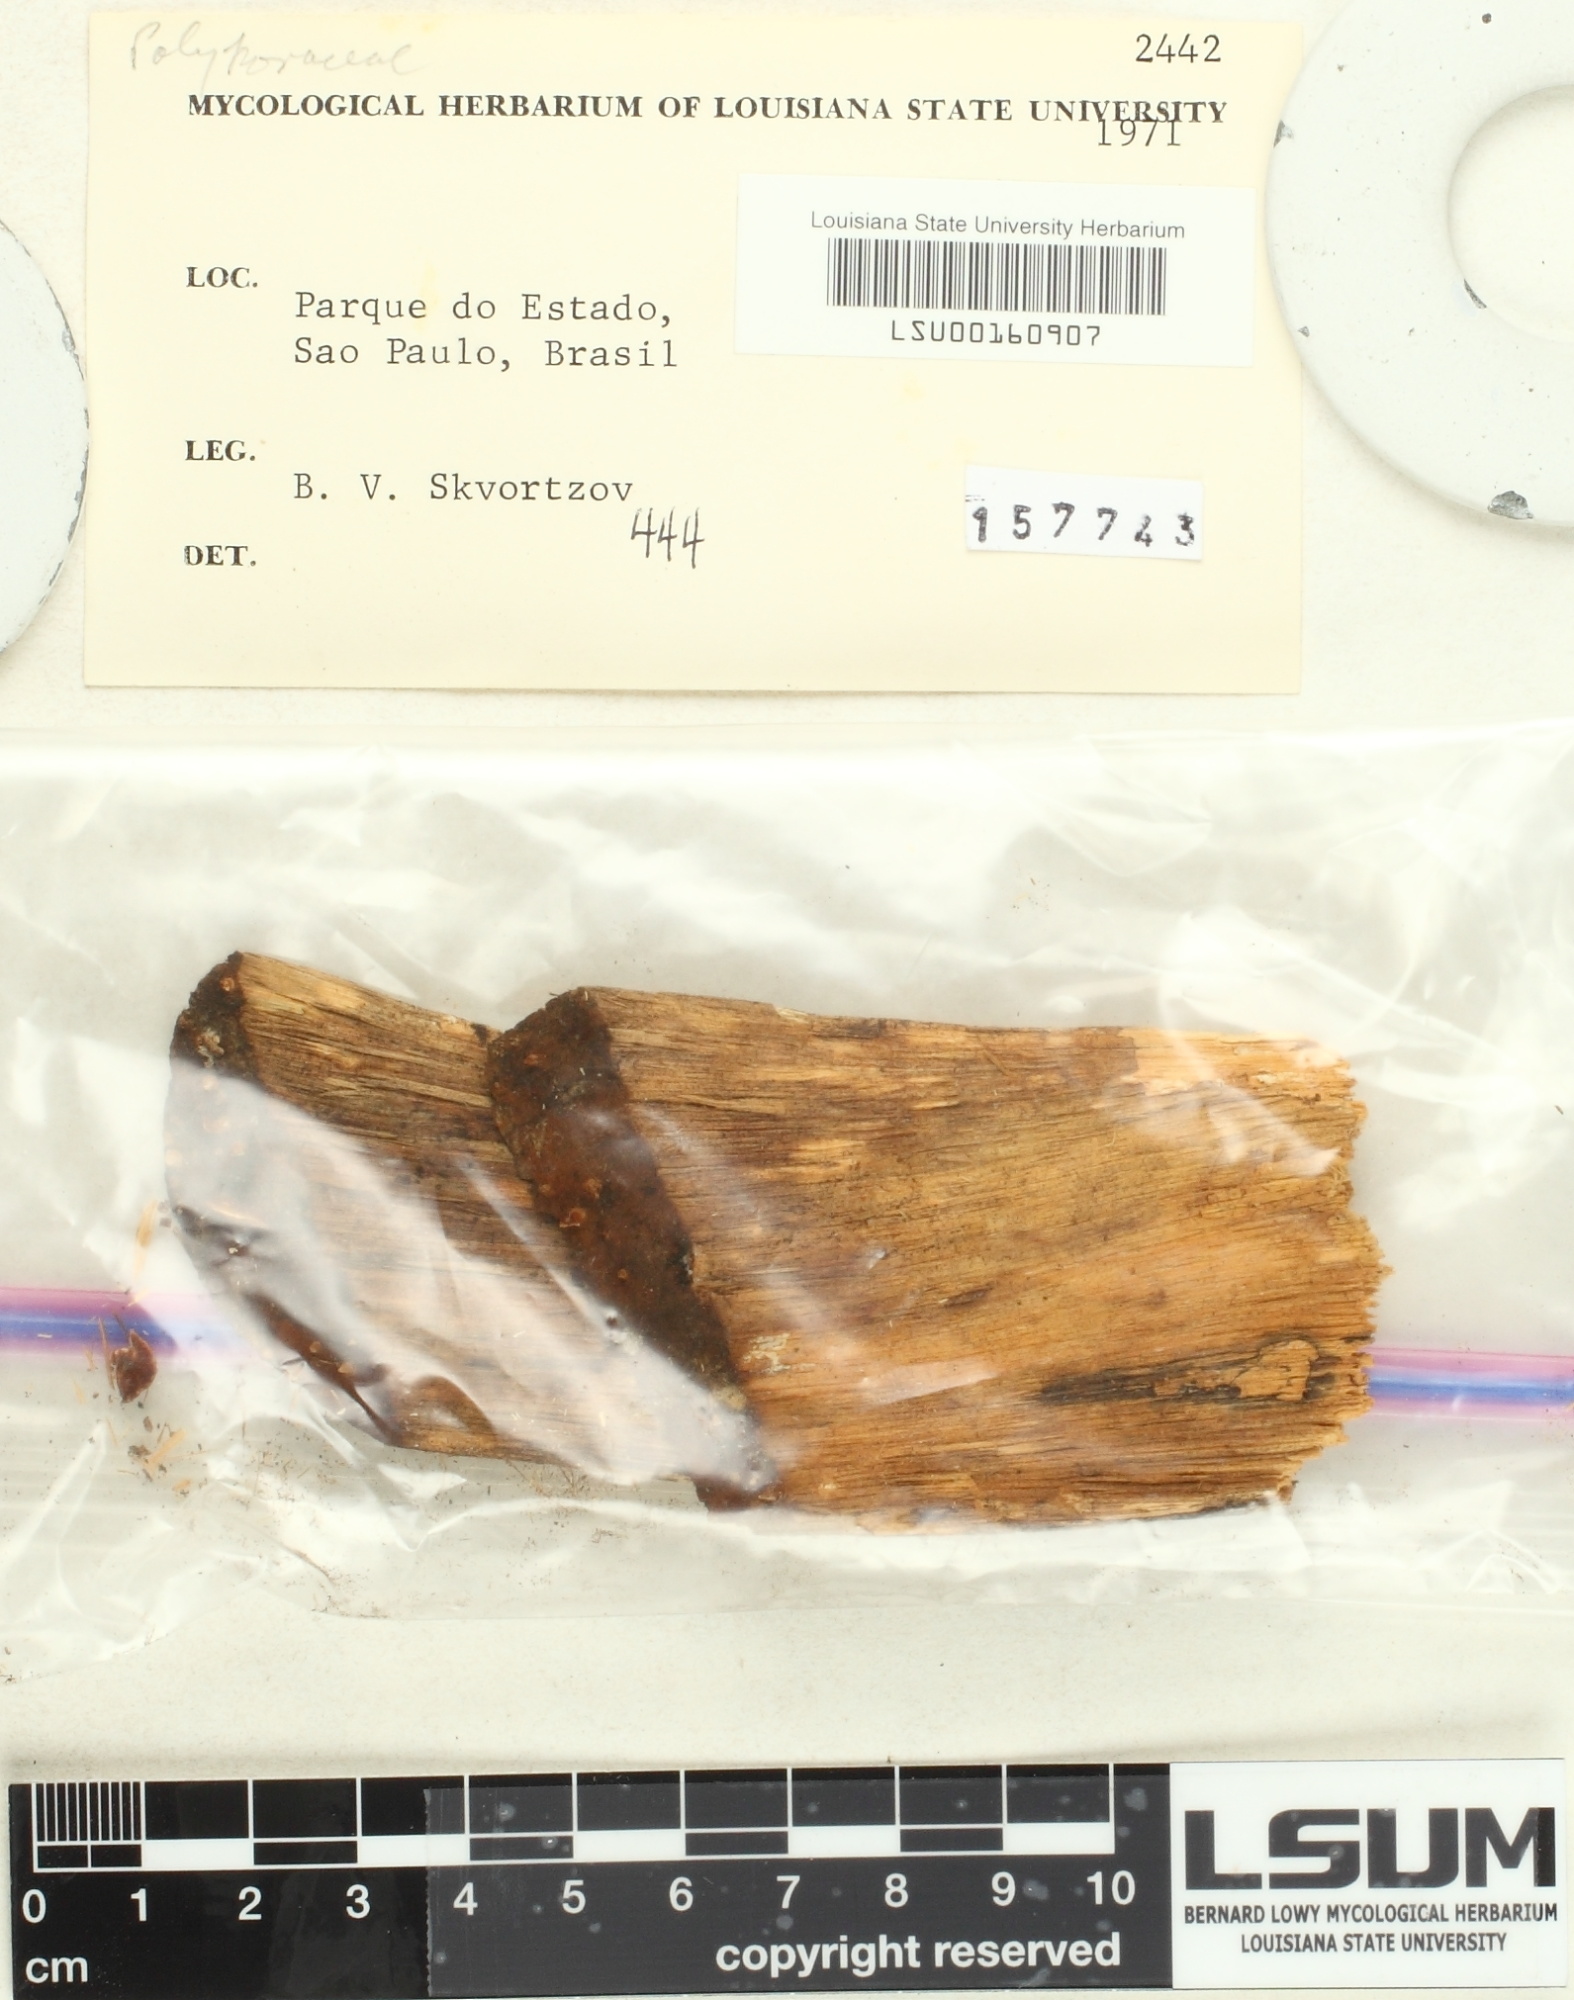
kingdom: Fungi
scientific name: Fungi
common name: Fungi
